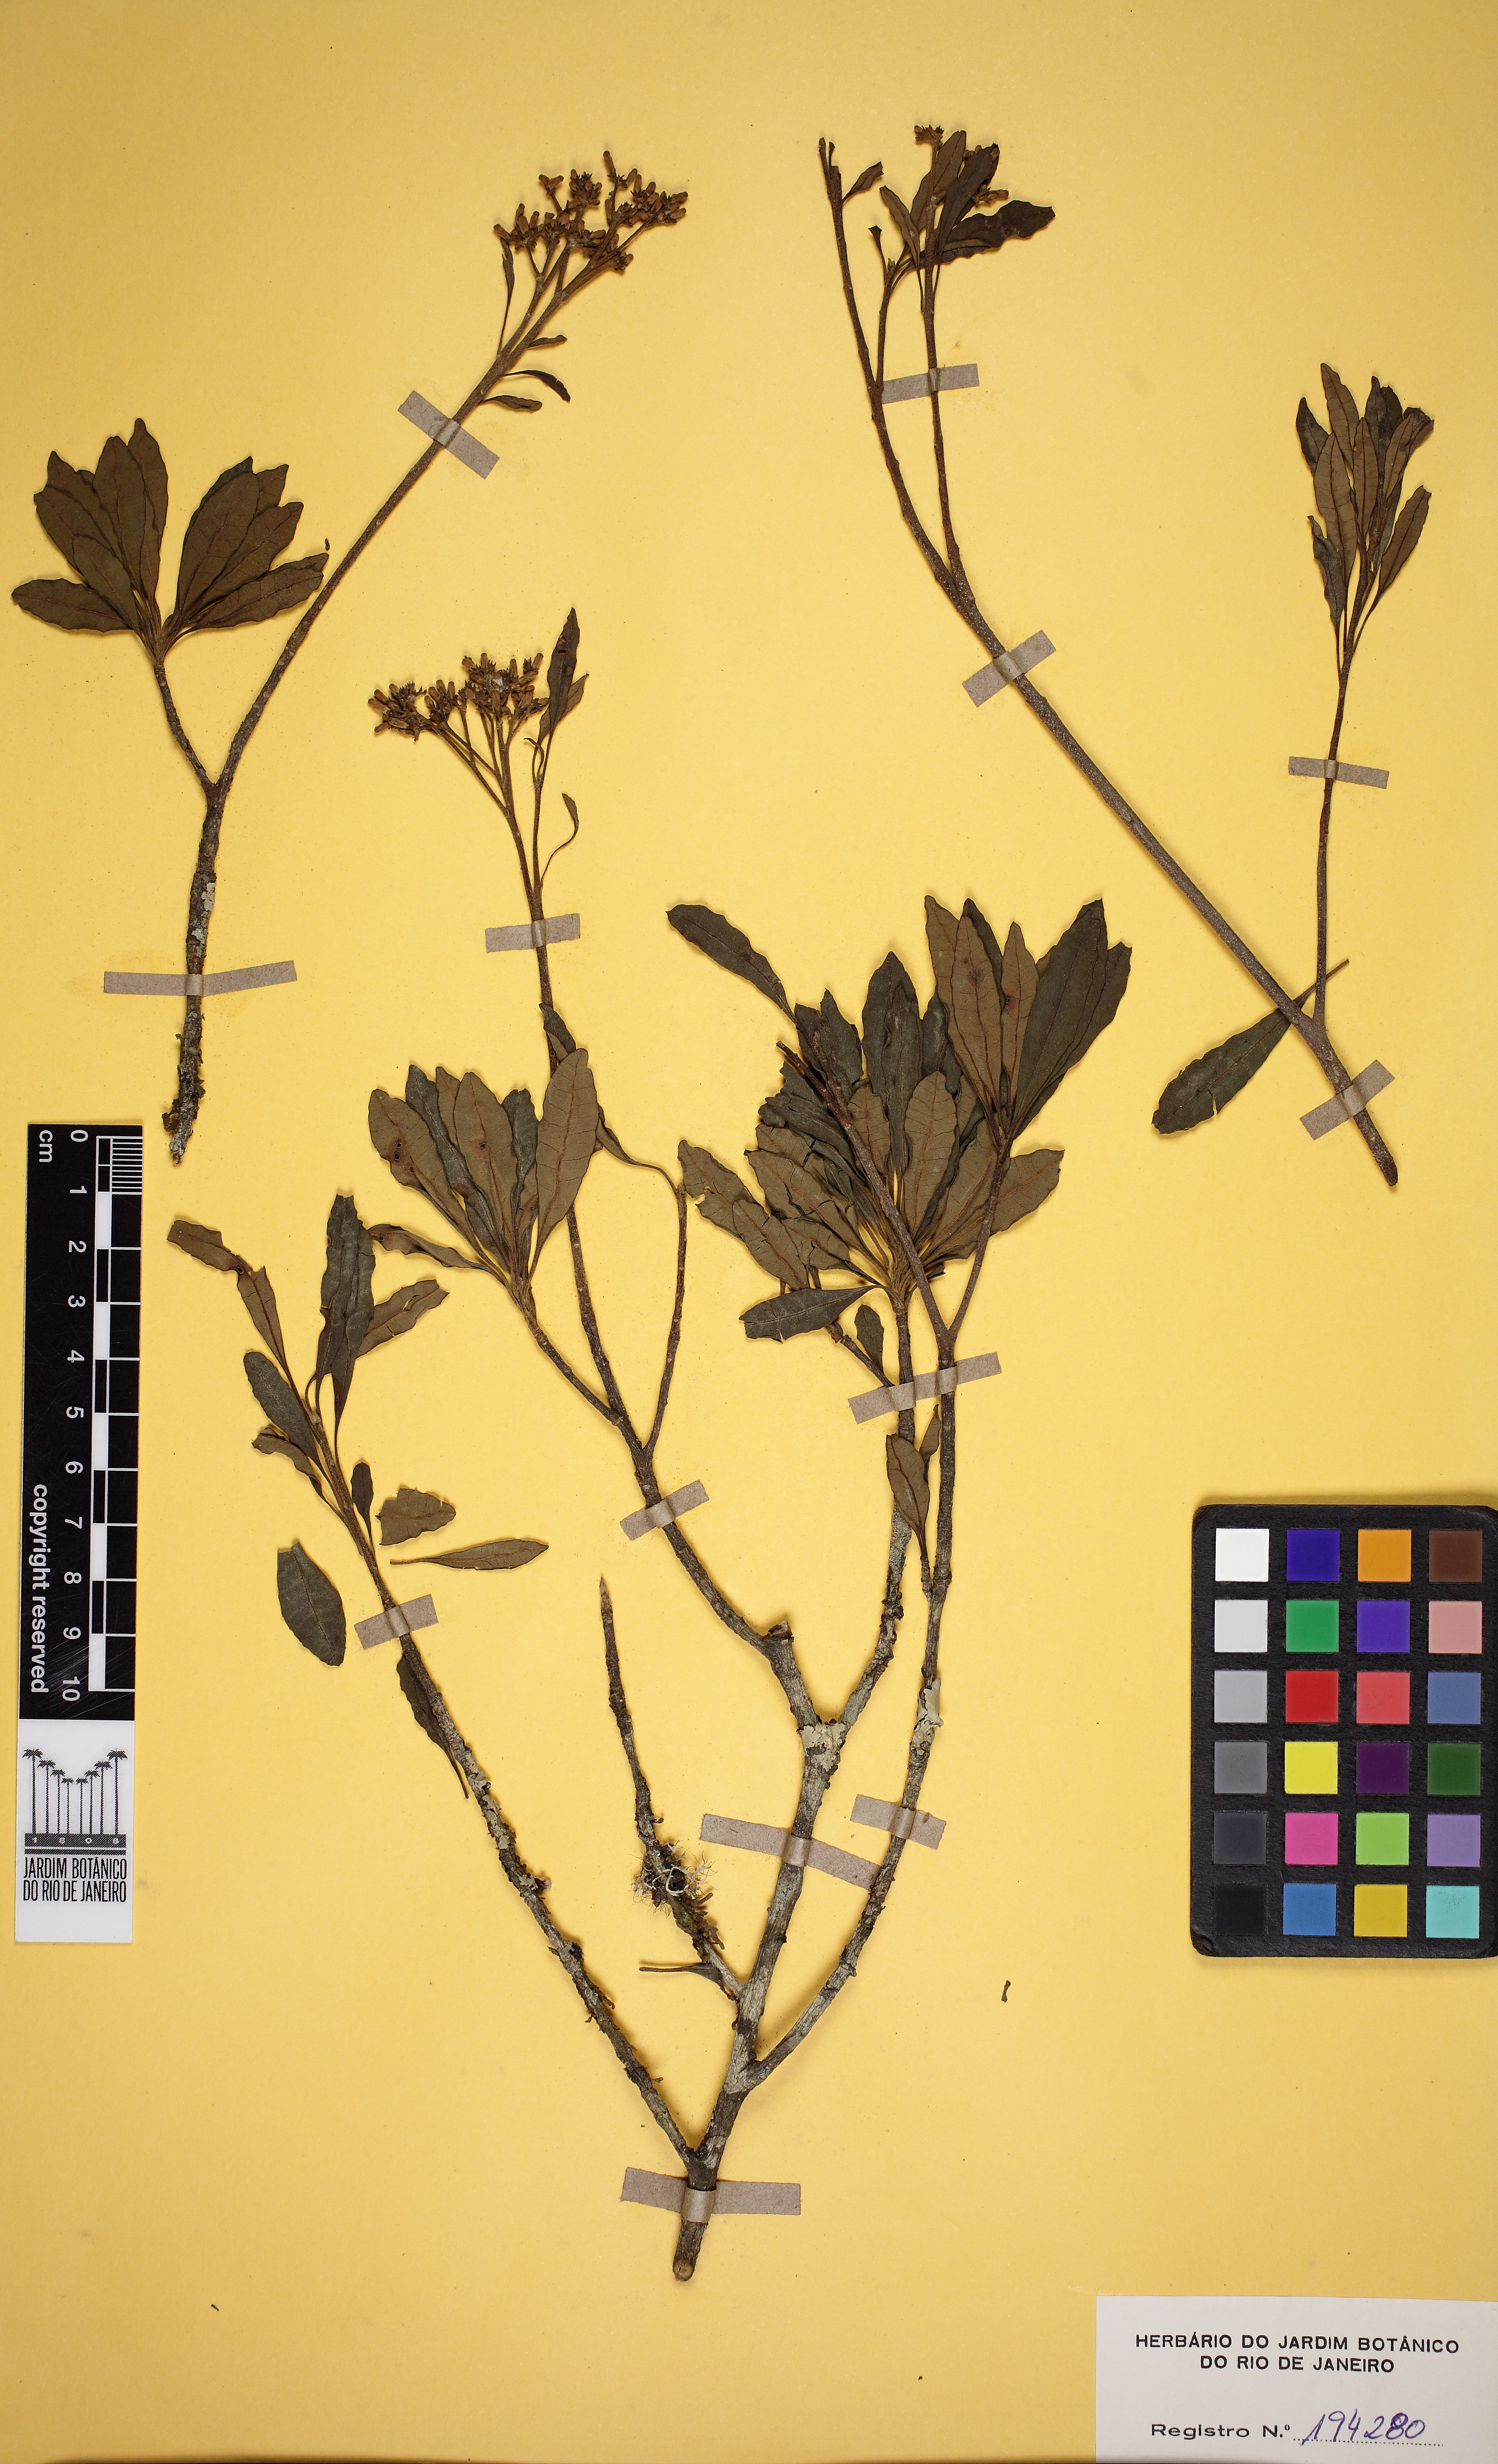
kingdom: Plantae
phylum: Tracheophyta
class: Magnoliopsida
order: Gentianales
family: Apocynaceae
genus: Aspidosperma
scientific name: Aspidosperma parvifolium
